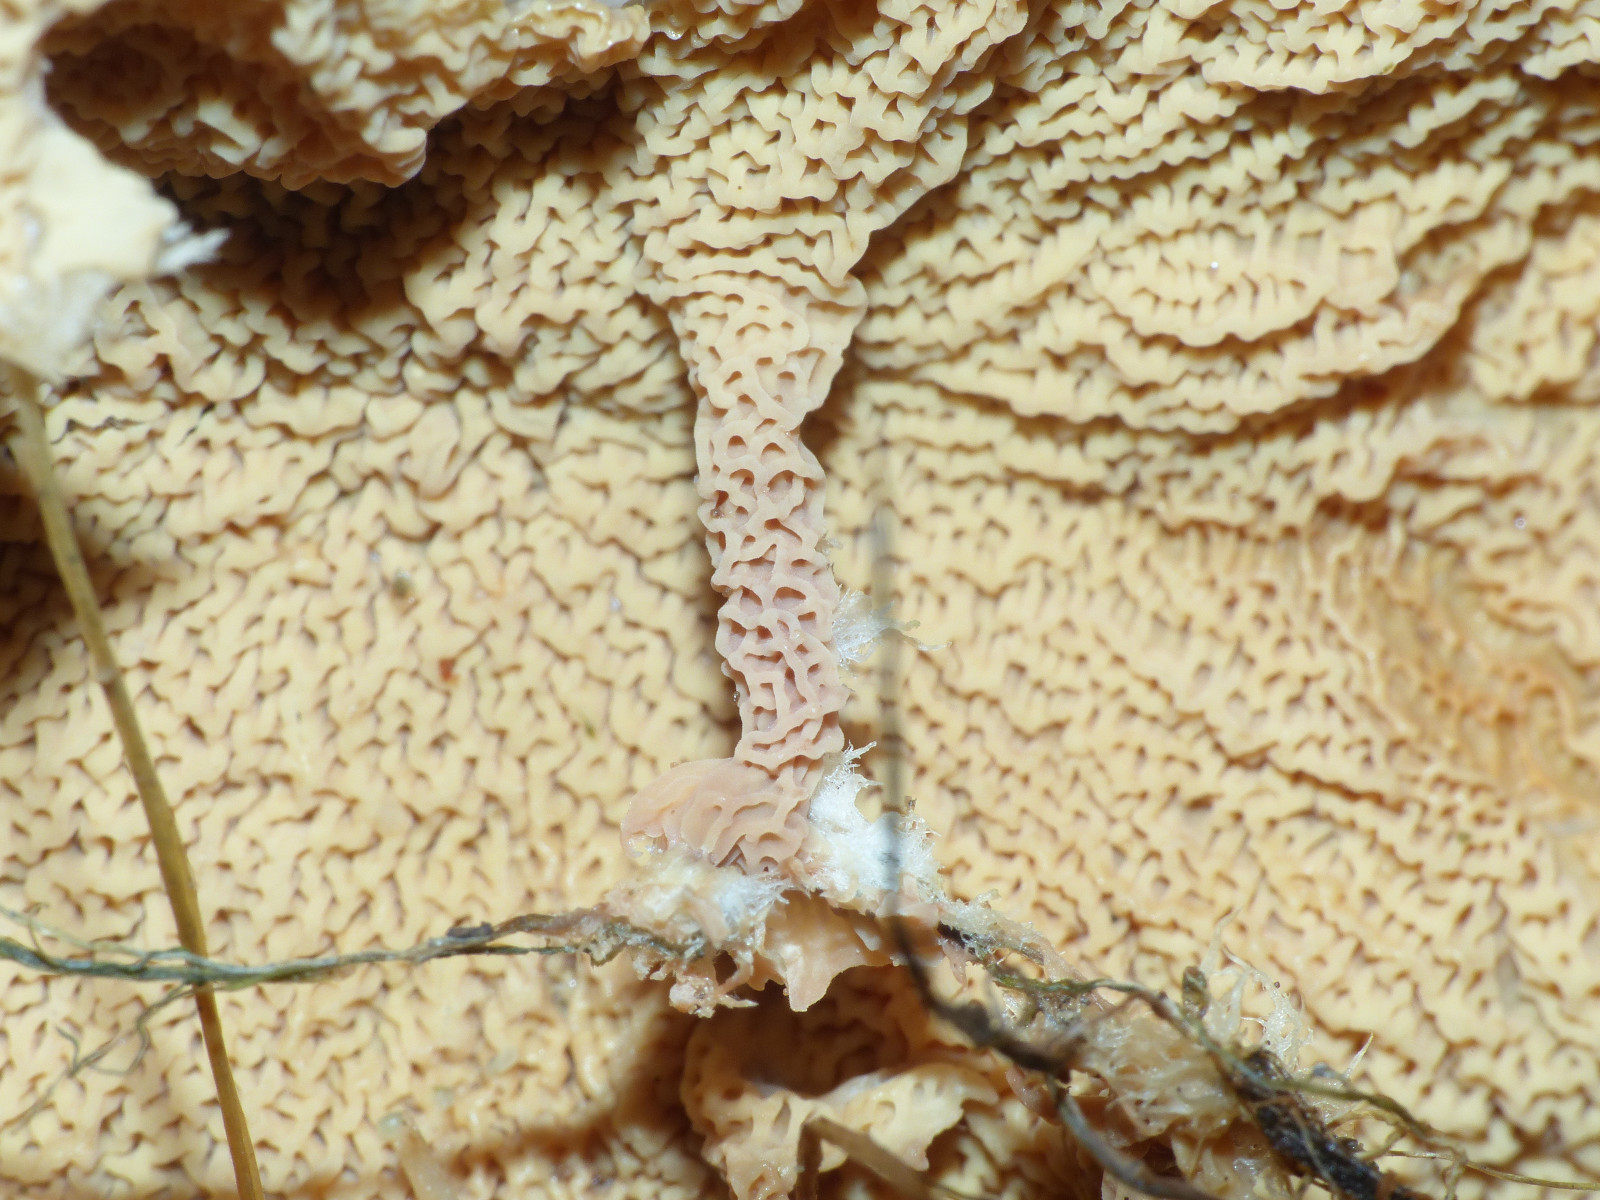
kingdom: Fungi
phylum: Basidiomycota
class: Agaricomycetes
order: Polyporales
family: Meruliaceae
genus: Phlebia
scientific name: Phlebia tremellosa
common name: bævrende åresvamp
